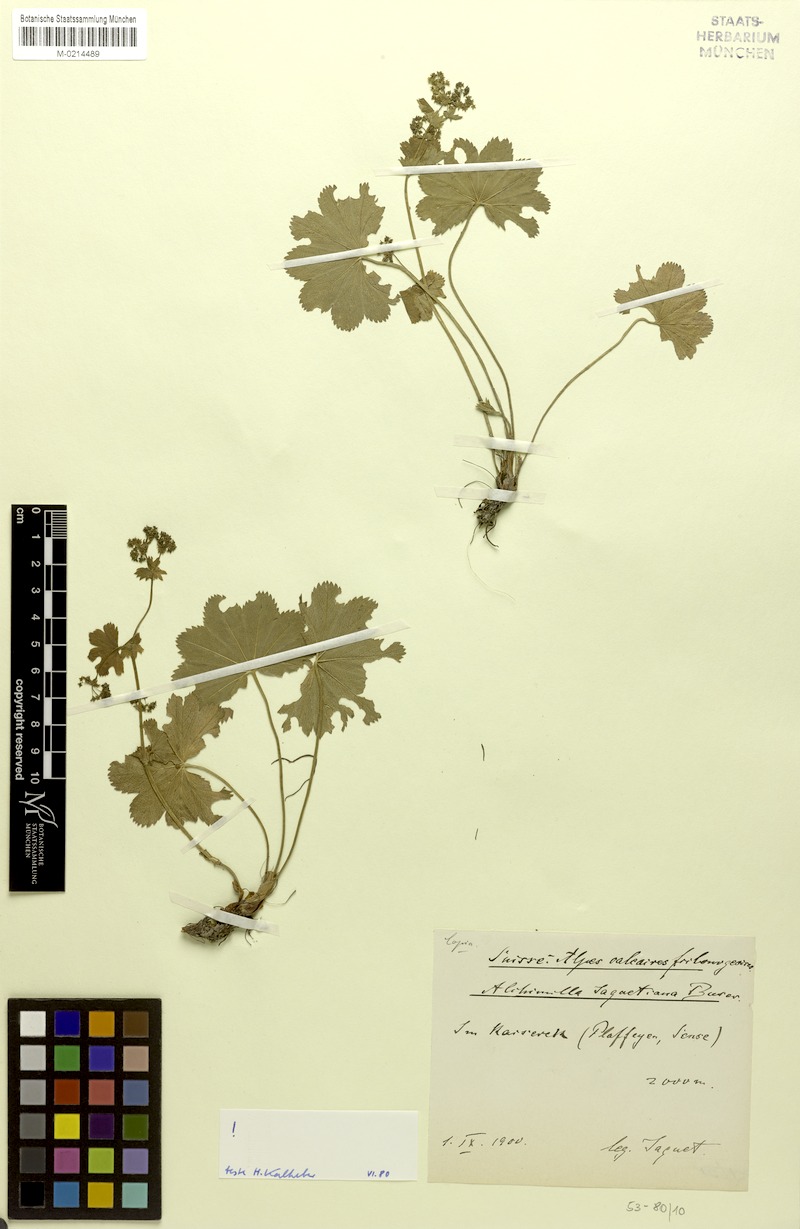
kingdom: Plantae
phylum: Tracheophyta
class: Magnoliopsida
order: Rosales
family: Rosaceae
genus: Alchemilla
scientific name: Alchemilla jaquetiana
